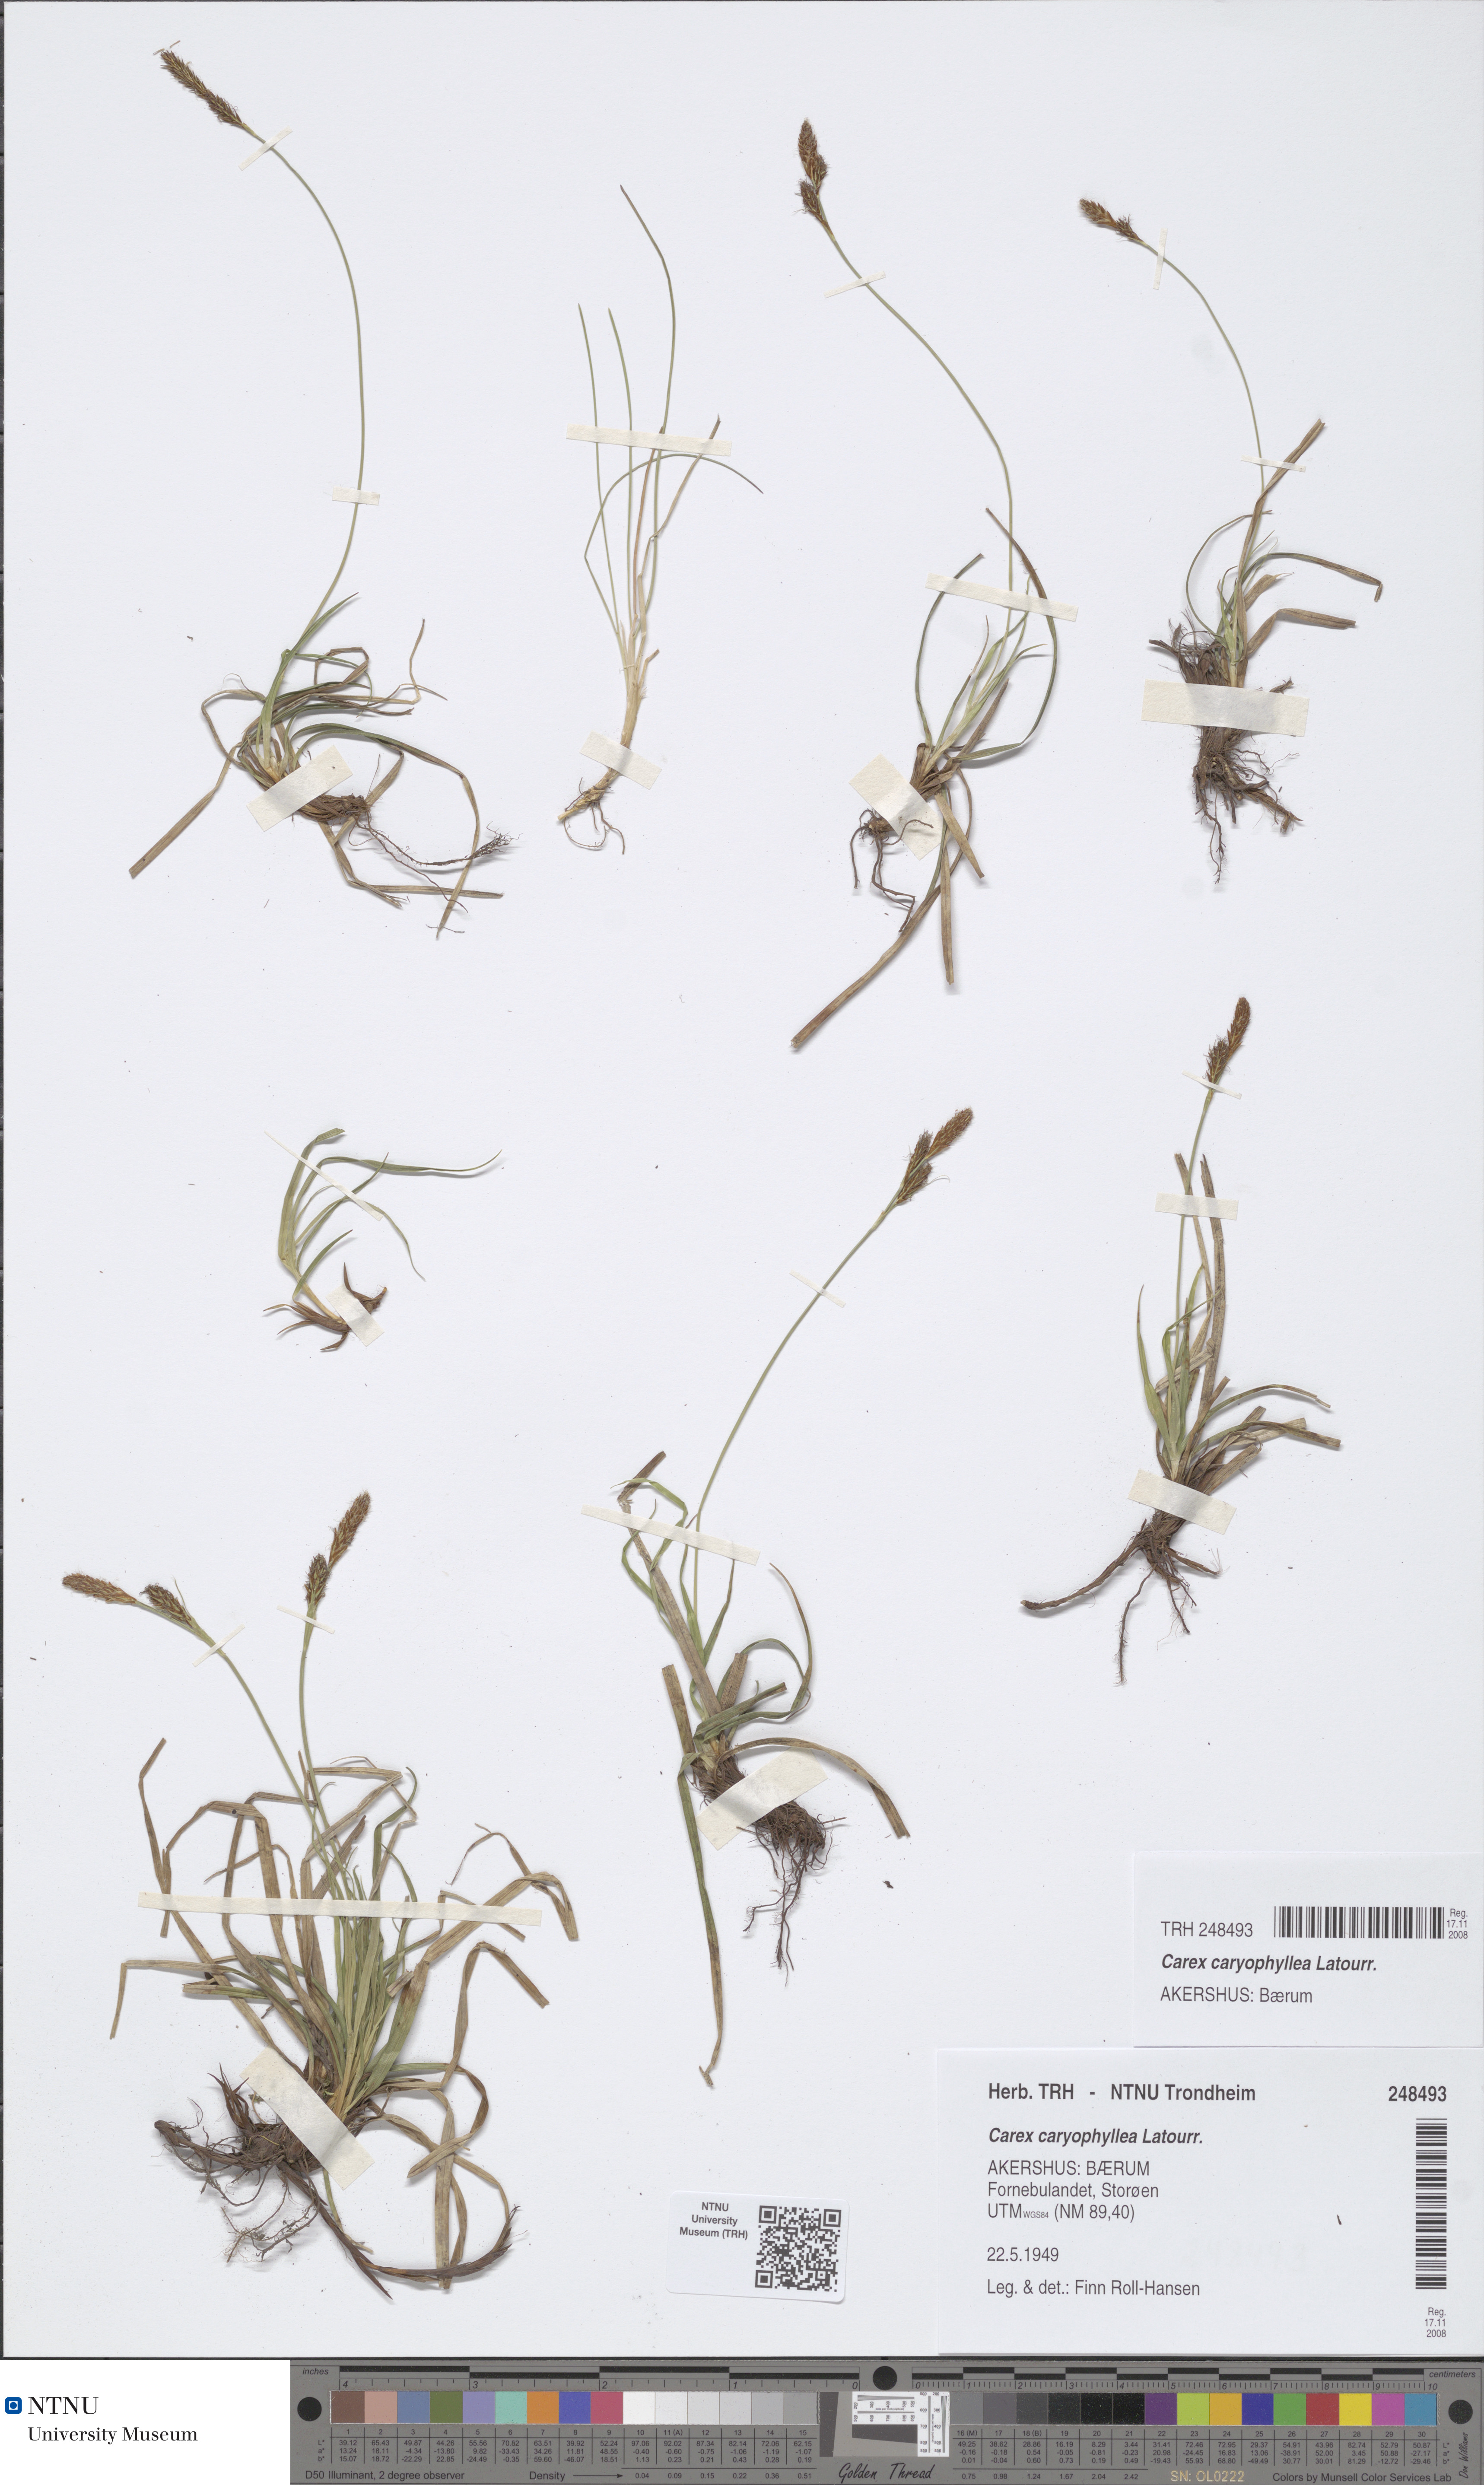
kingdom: Plantae
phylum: Tracheophyta
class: Liliopsida
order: Poales
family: Cyperaceae
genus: Carex
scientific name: Carex caryophyllea
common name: Spring sedge
